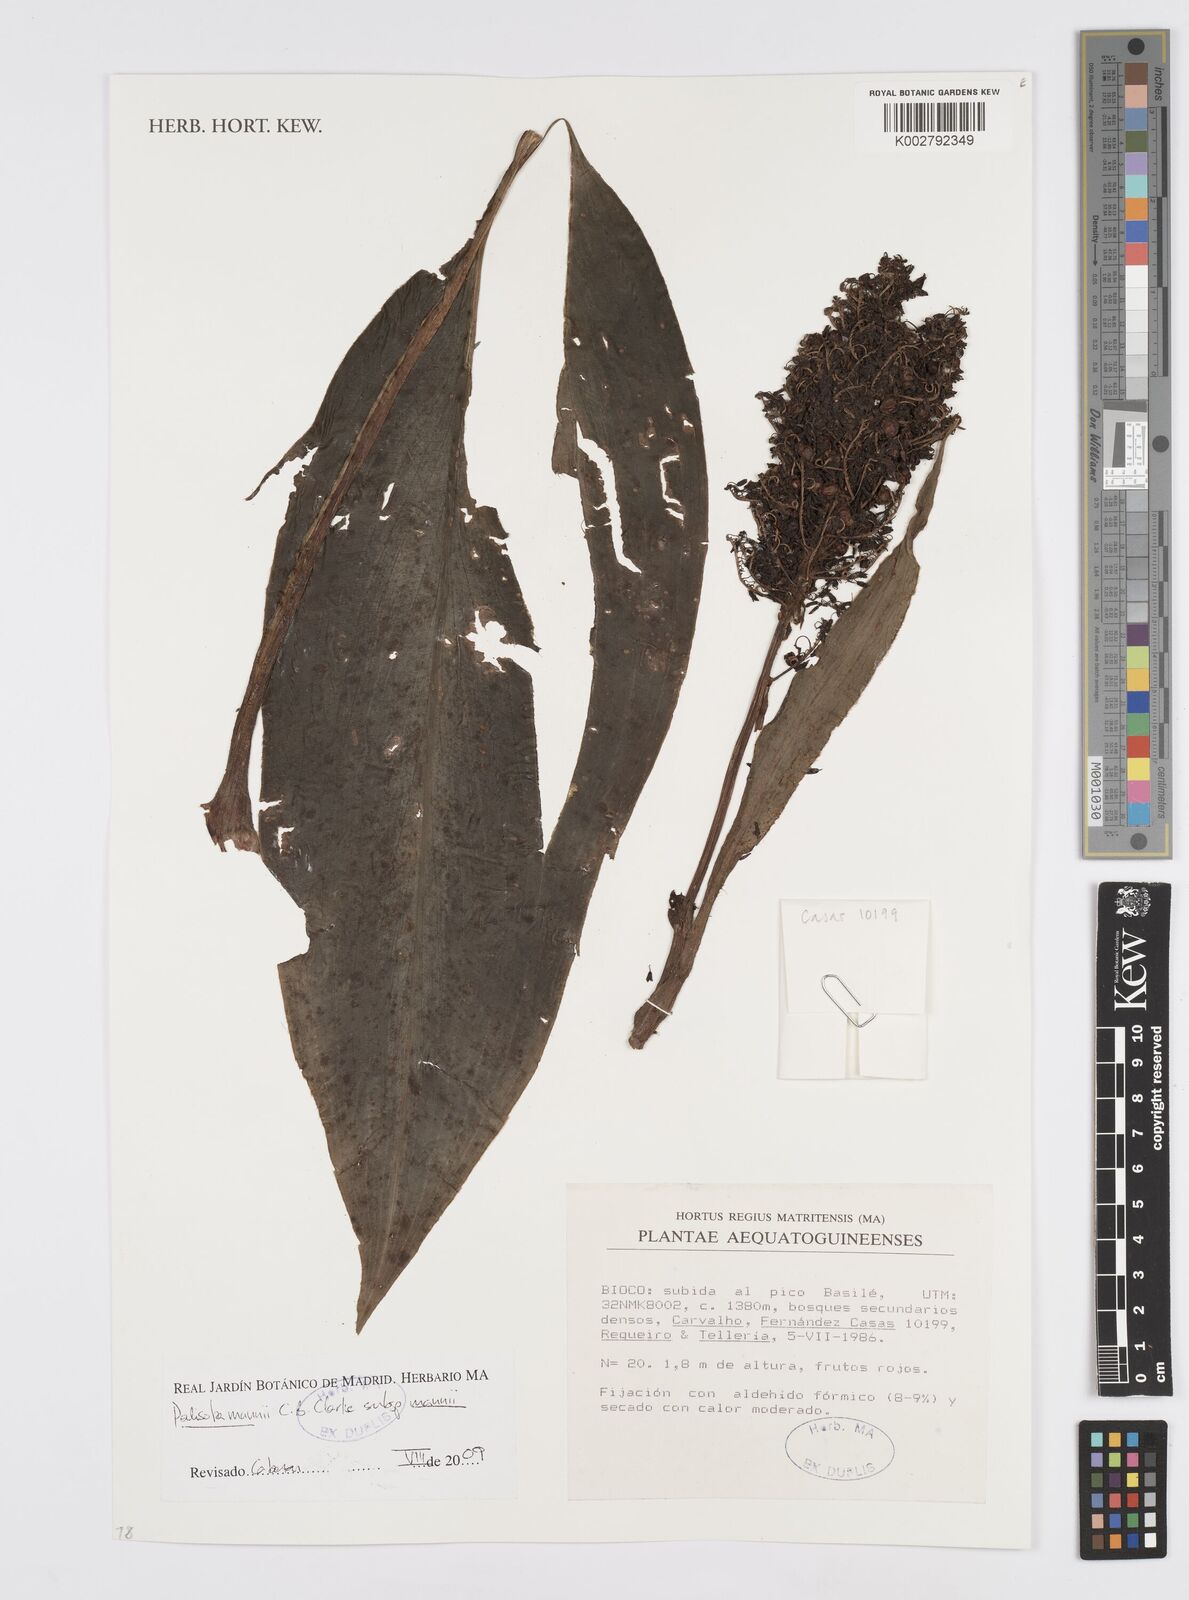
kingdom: Plantae
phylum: Tracheophyta
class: Liliopsida
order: Commelinales
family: Commelinaceae
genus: Palisota
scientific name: Palisota mannii
